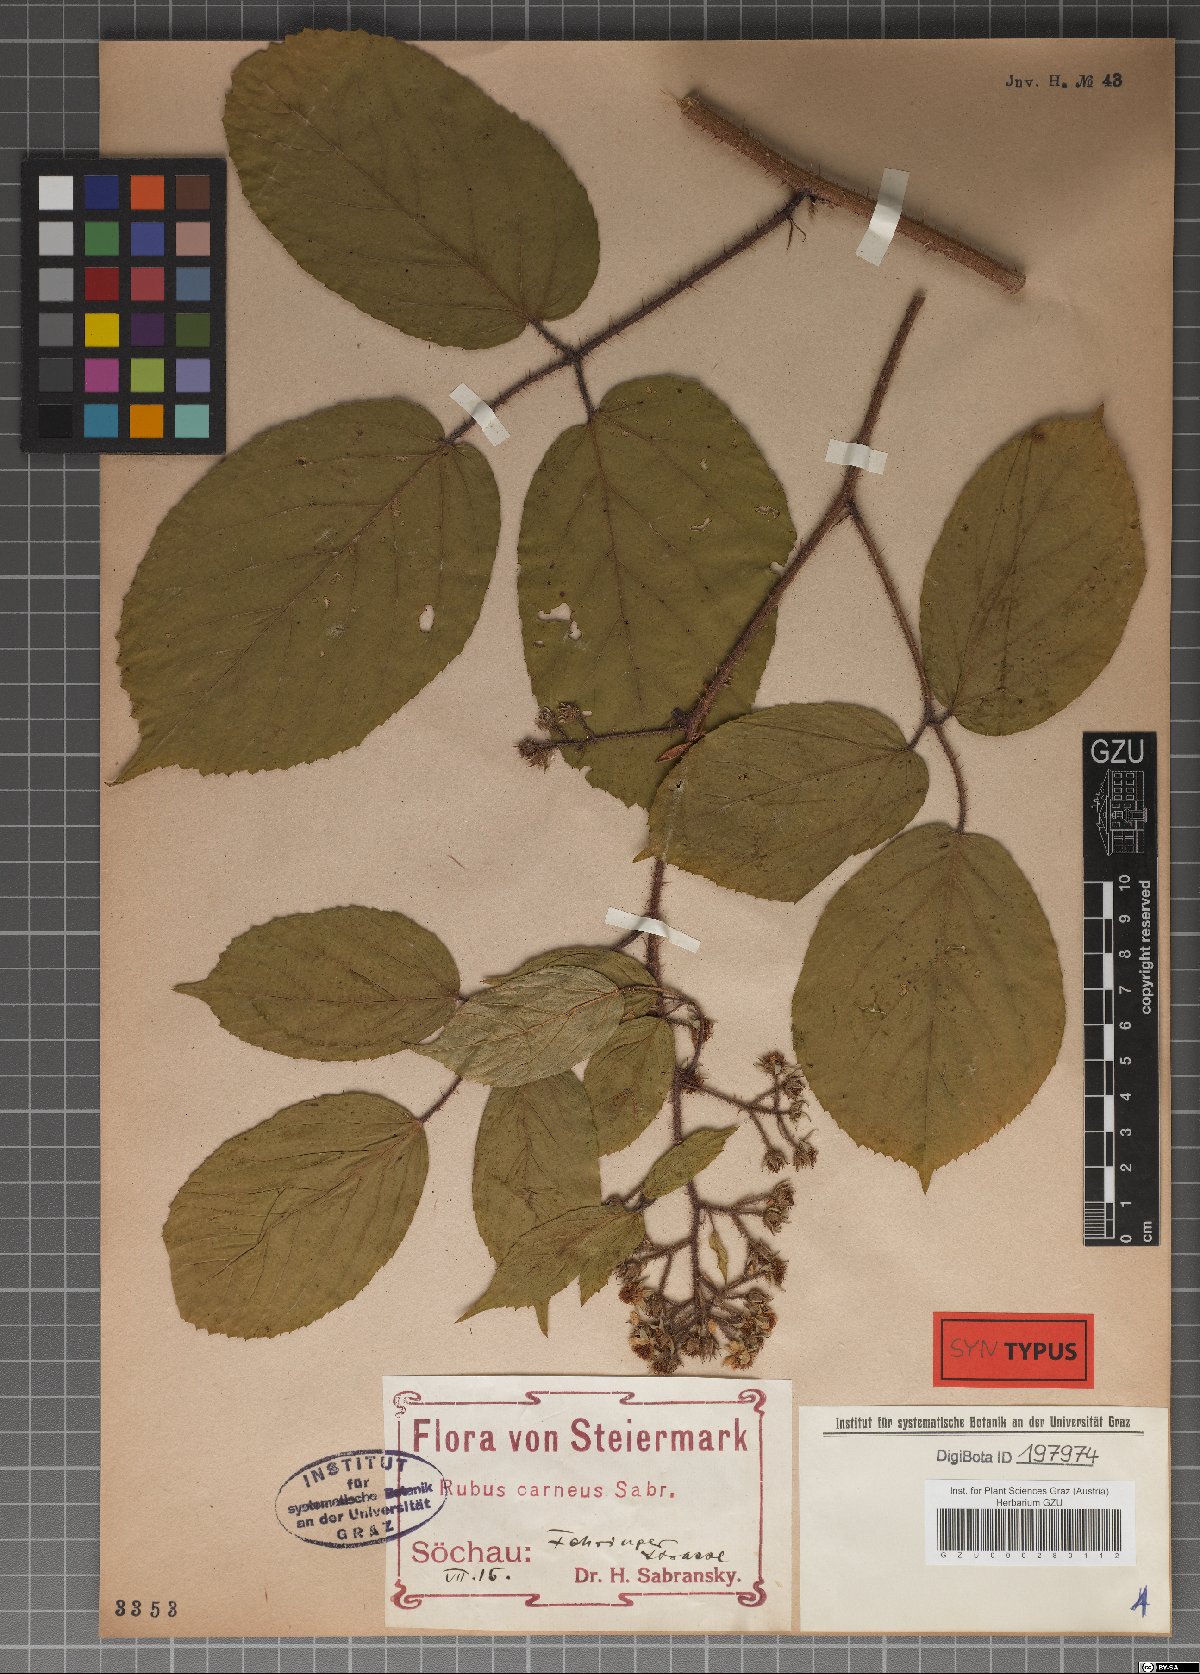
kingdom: Plantae
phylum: Tracheophyta
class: Magnoliopsida
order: Rosales
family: Rosaceae
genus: Rubus
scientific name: Rubus carneus
